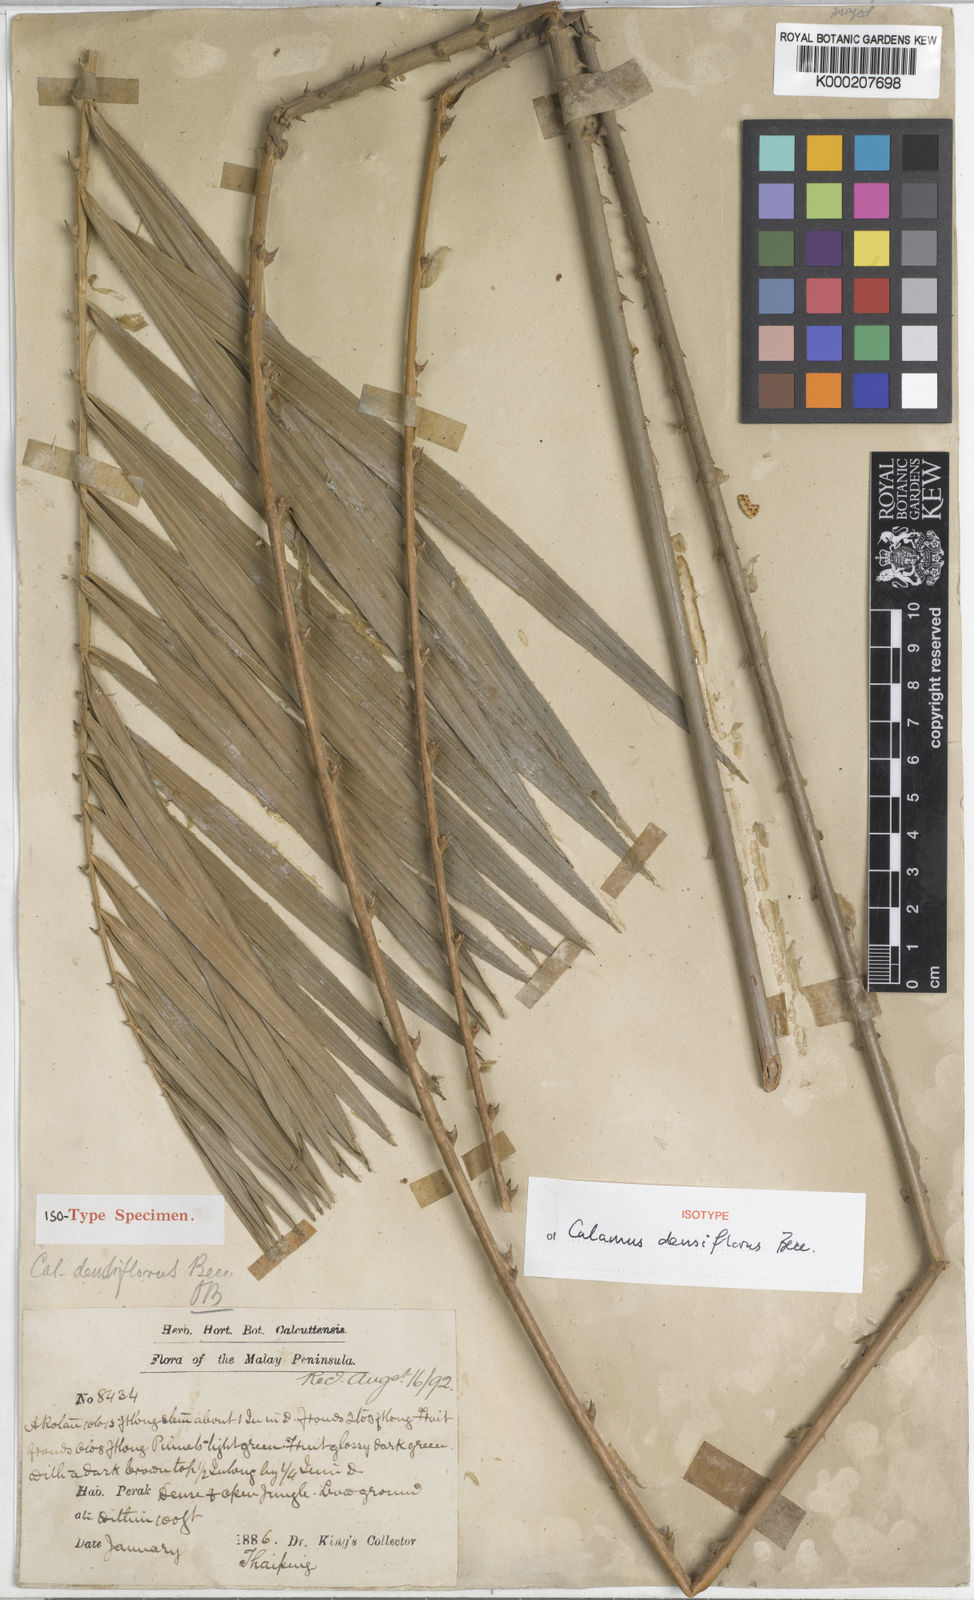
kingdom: Plantae
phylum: Tracheophyta
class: Liliopsida
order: Arecales
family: Arecaceae
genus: Calamus
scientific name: Calamus densiflorus
